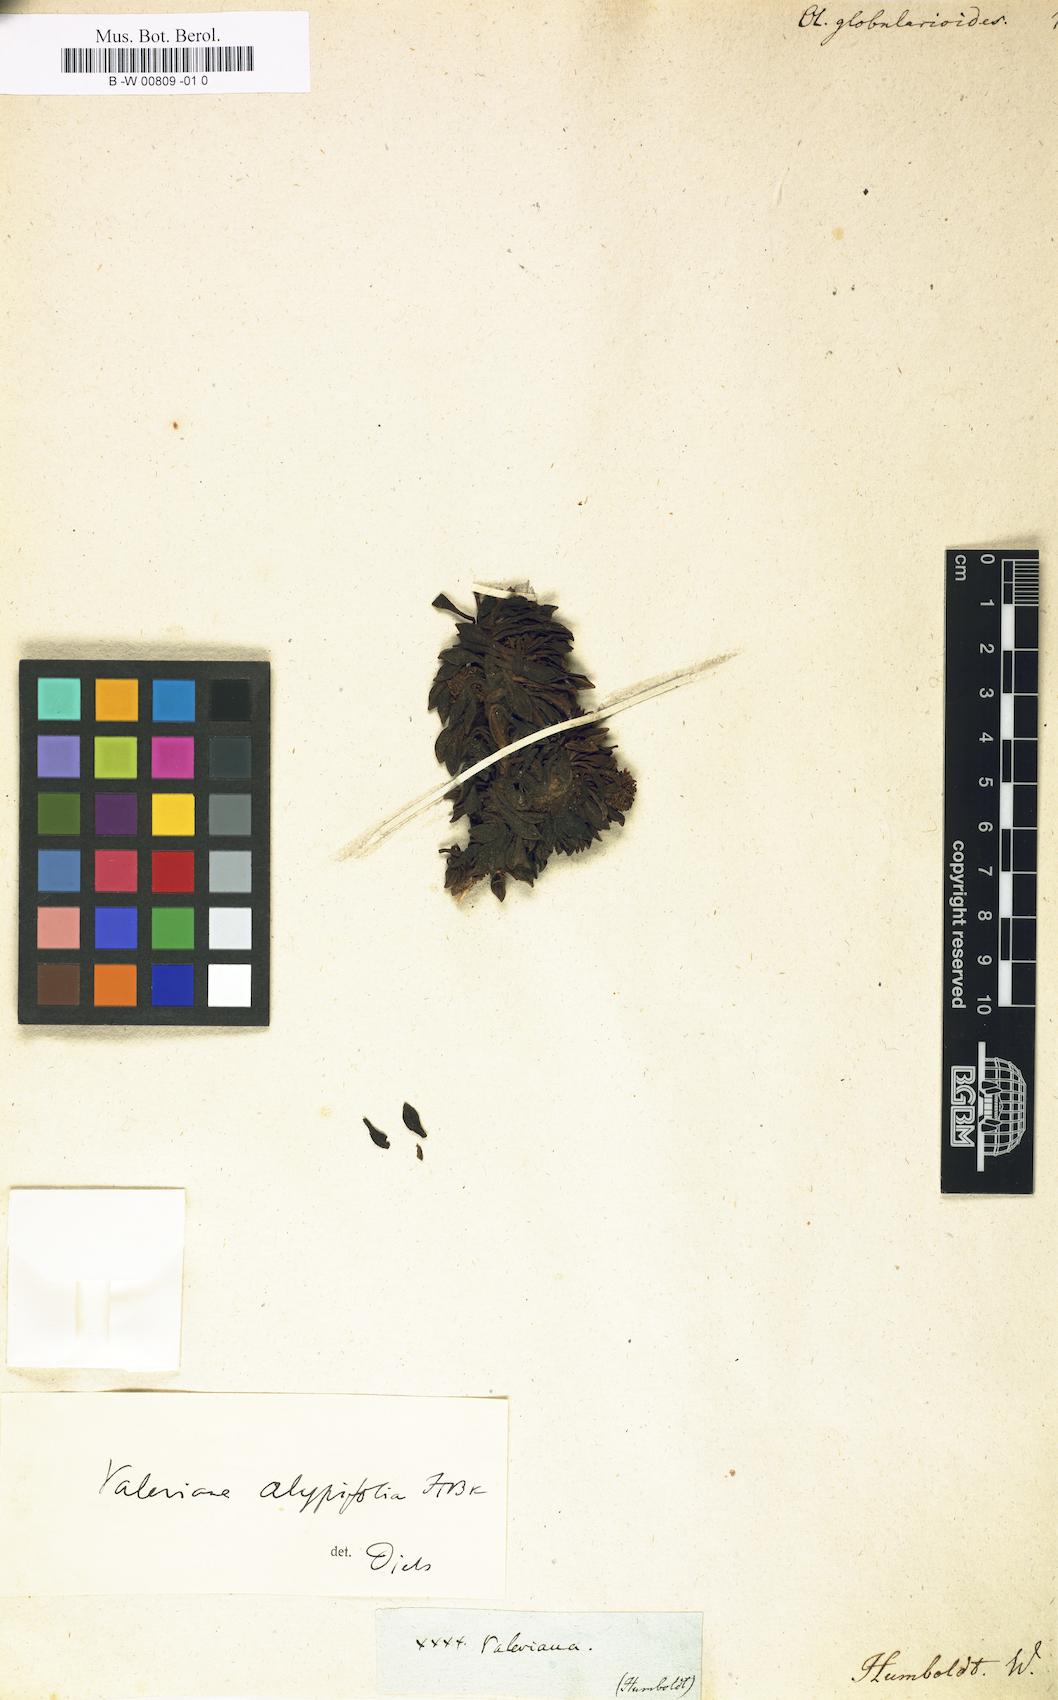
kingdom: Plantae
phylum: Tracheophyta
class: Magnoliopsida
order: Dipsacales
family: Caprifoliaceae
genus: Valeriana
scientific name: Valeriana
